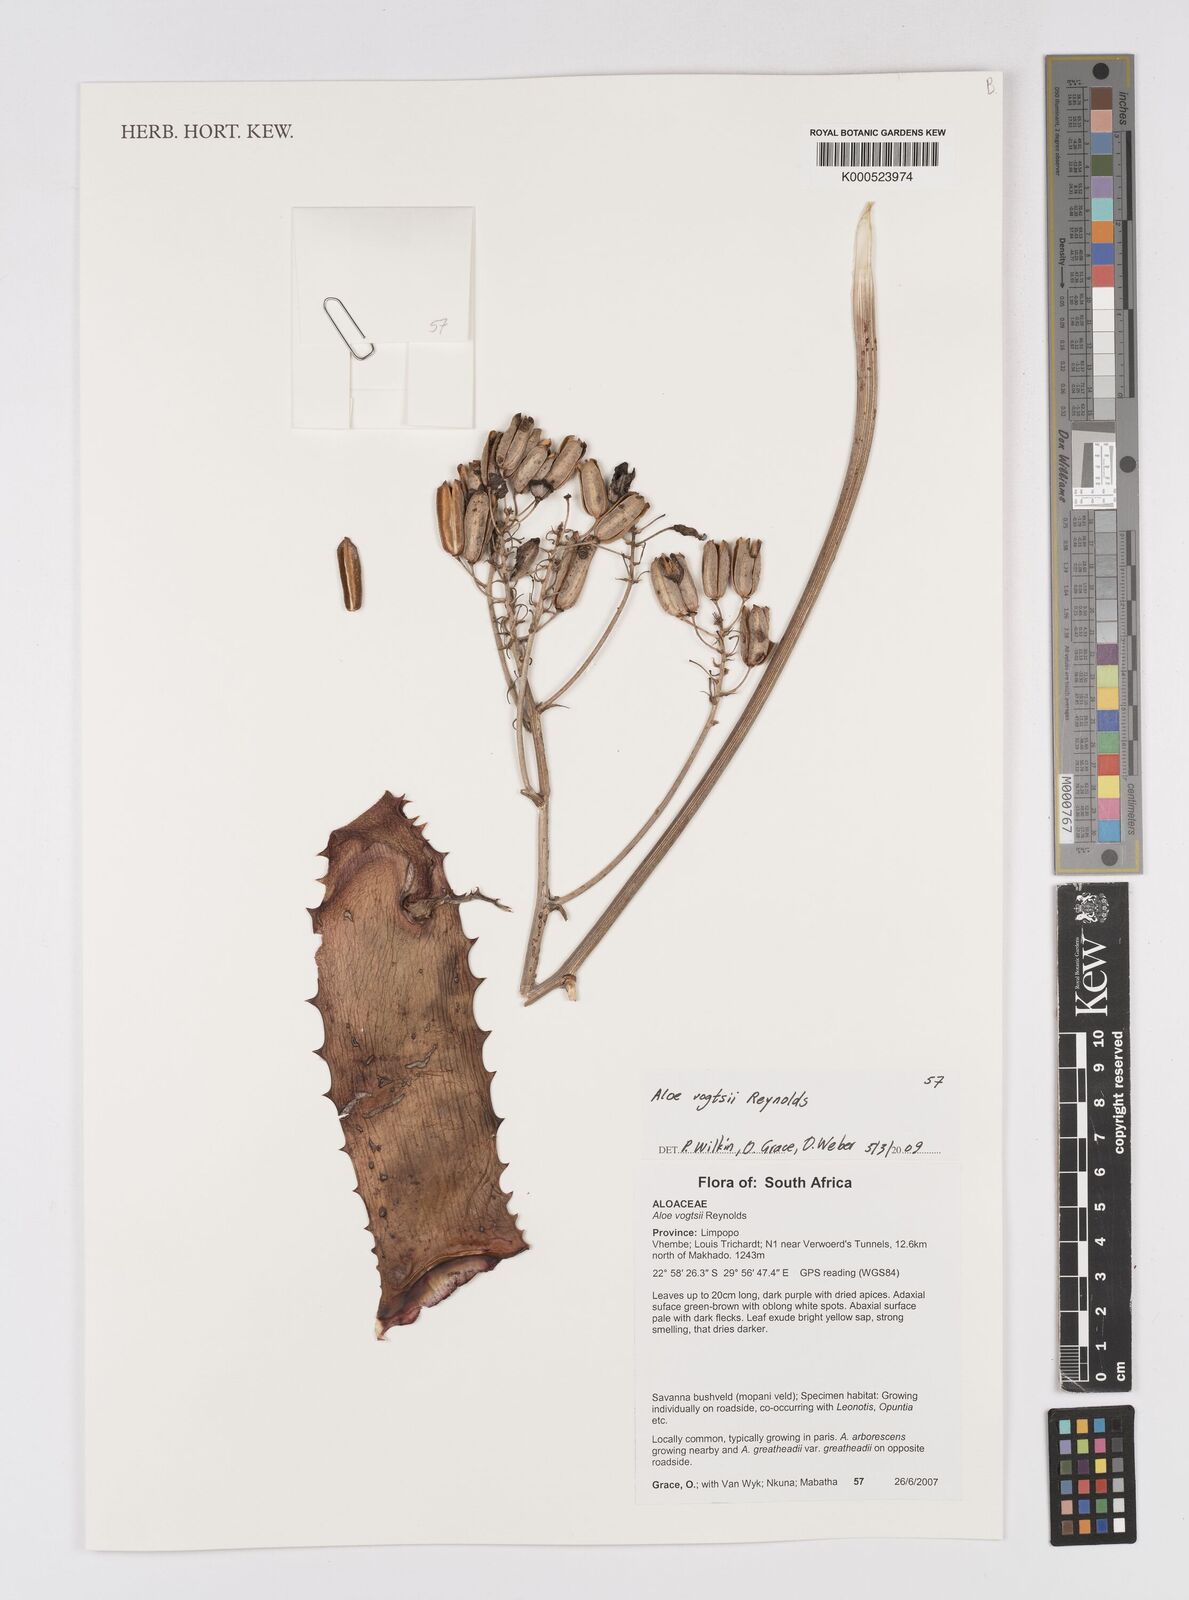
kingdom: Plantae
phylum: Tracheophyta
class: Liliopsida
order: Asparagales
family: Asphodelaceae
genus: Aloe
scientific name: Aloe vogtsii
